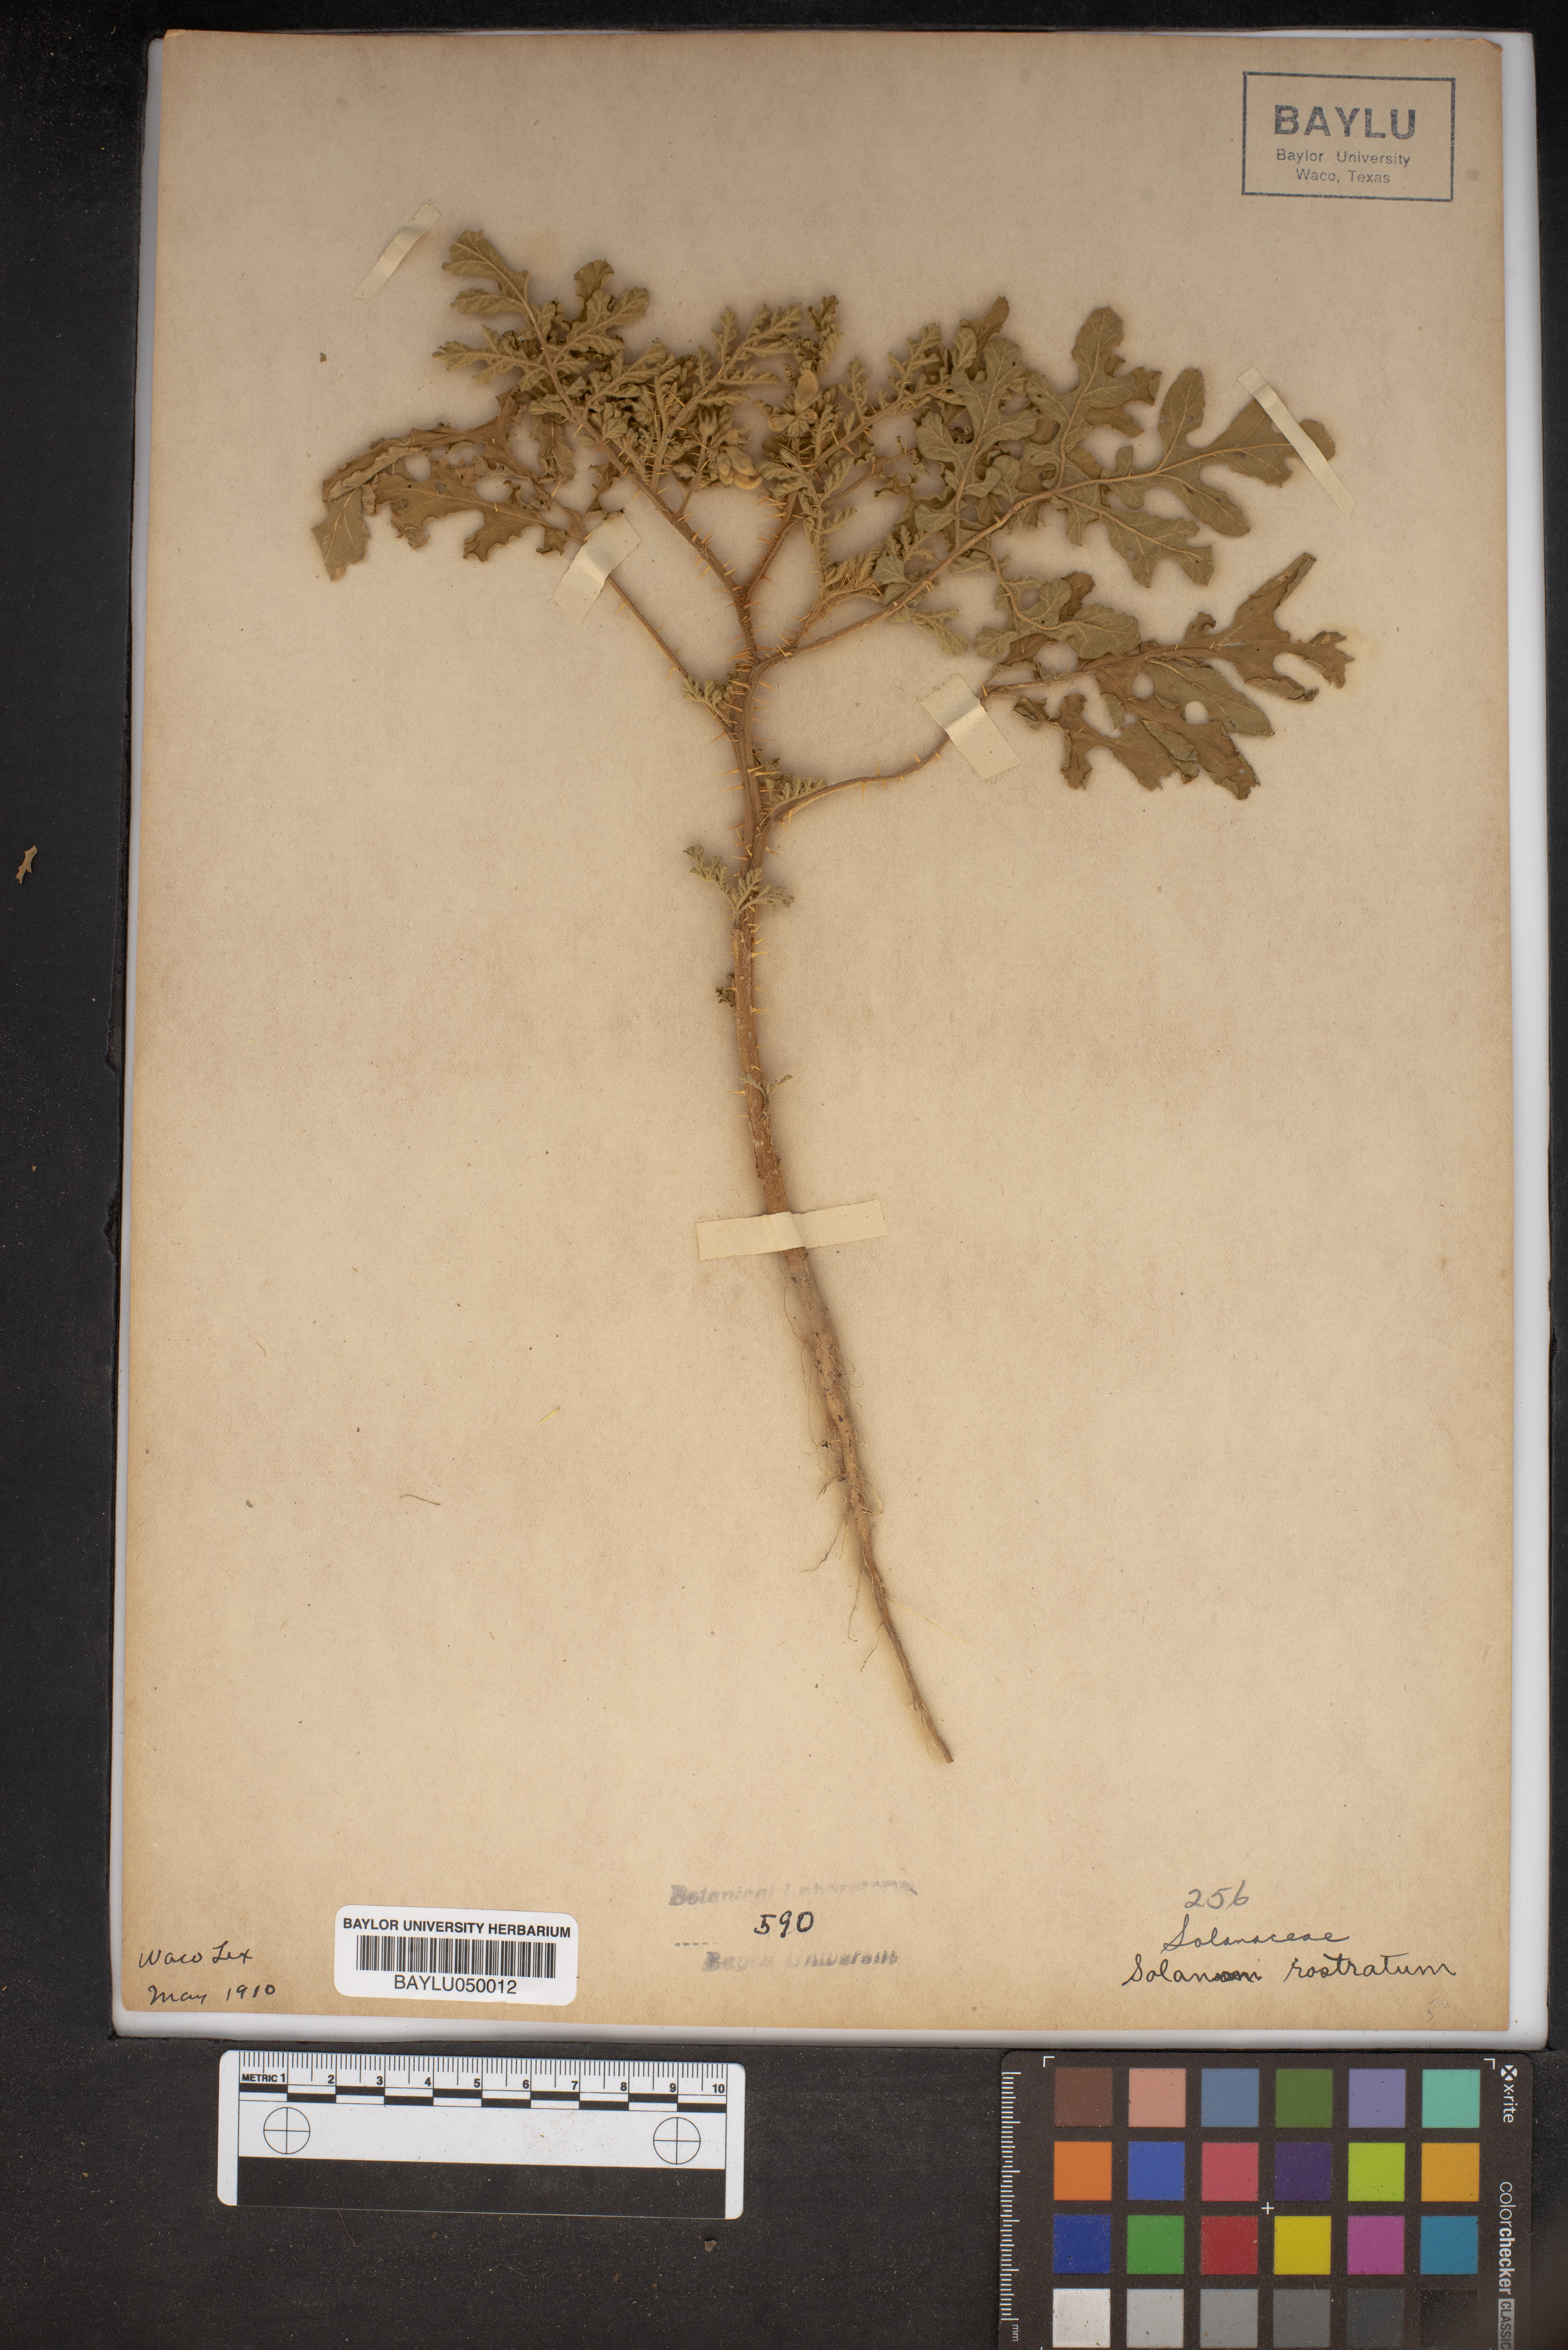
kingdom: Plantae
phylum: Tracheophyta
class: Magnoliopsida
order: Solanales
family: Solanaceae
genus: Solanum
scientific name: Solanum angustifolium
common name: Buffalobur nightshade
